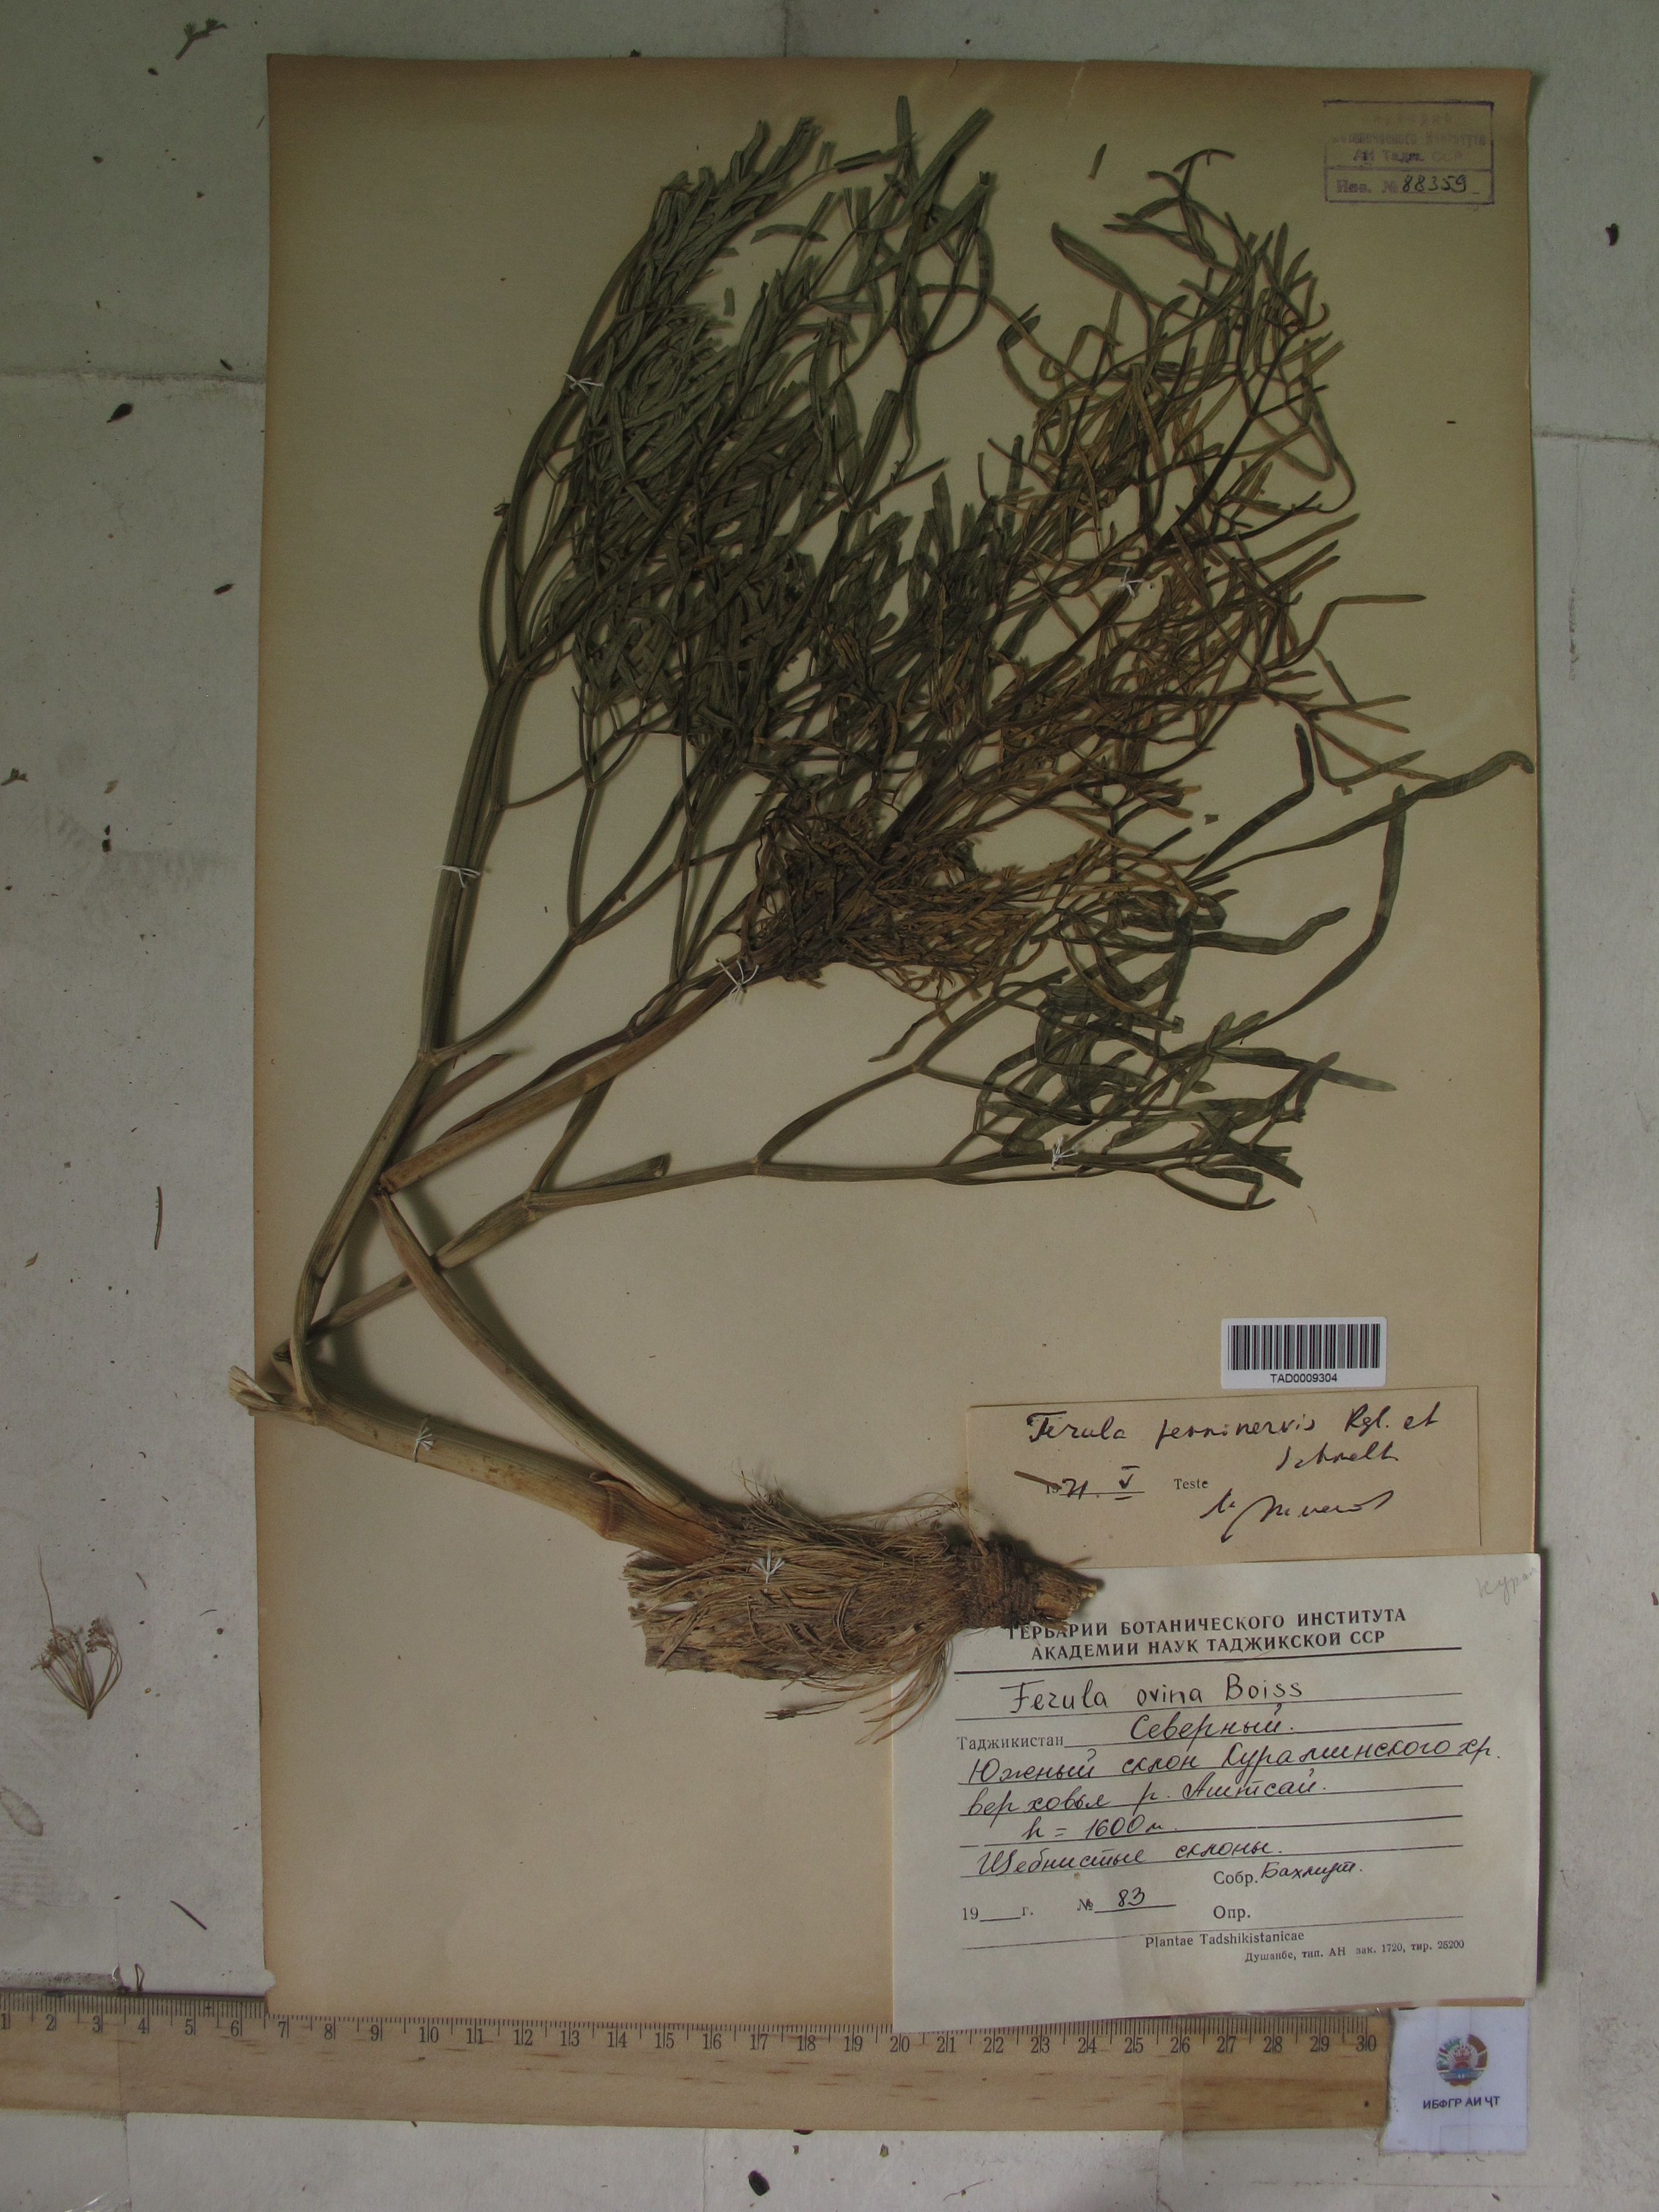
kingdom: Plantae
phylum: Tracheophyta
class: Magnoliopsida
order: Apiales
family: Apiaceae
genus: Ferula
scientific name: Ferula
